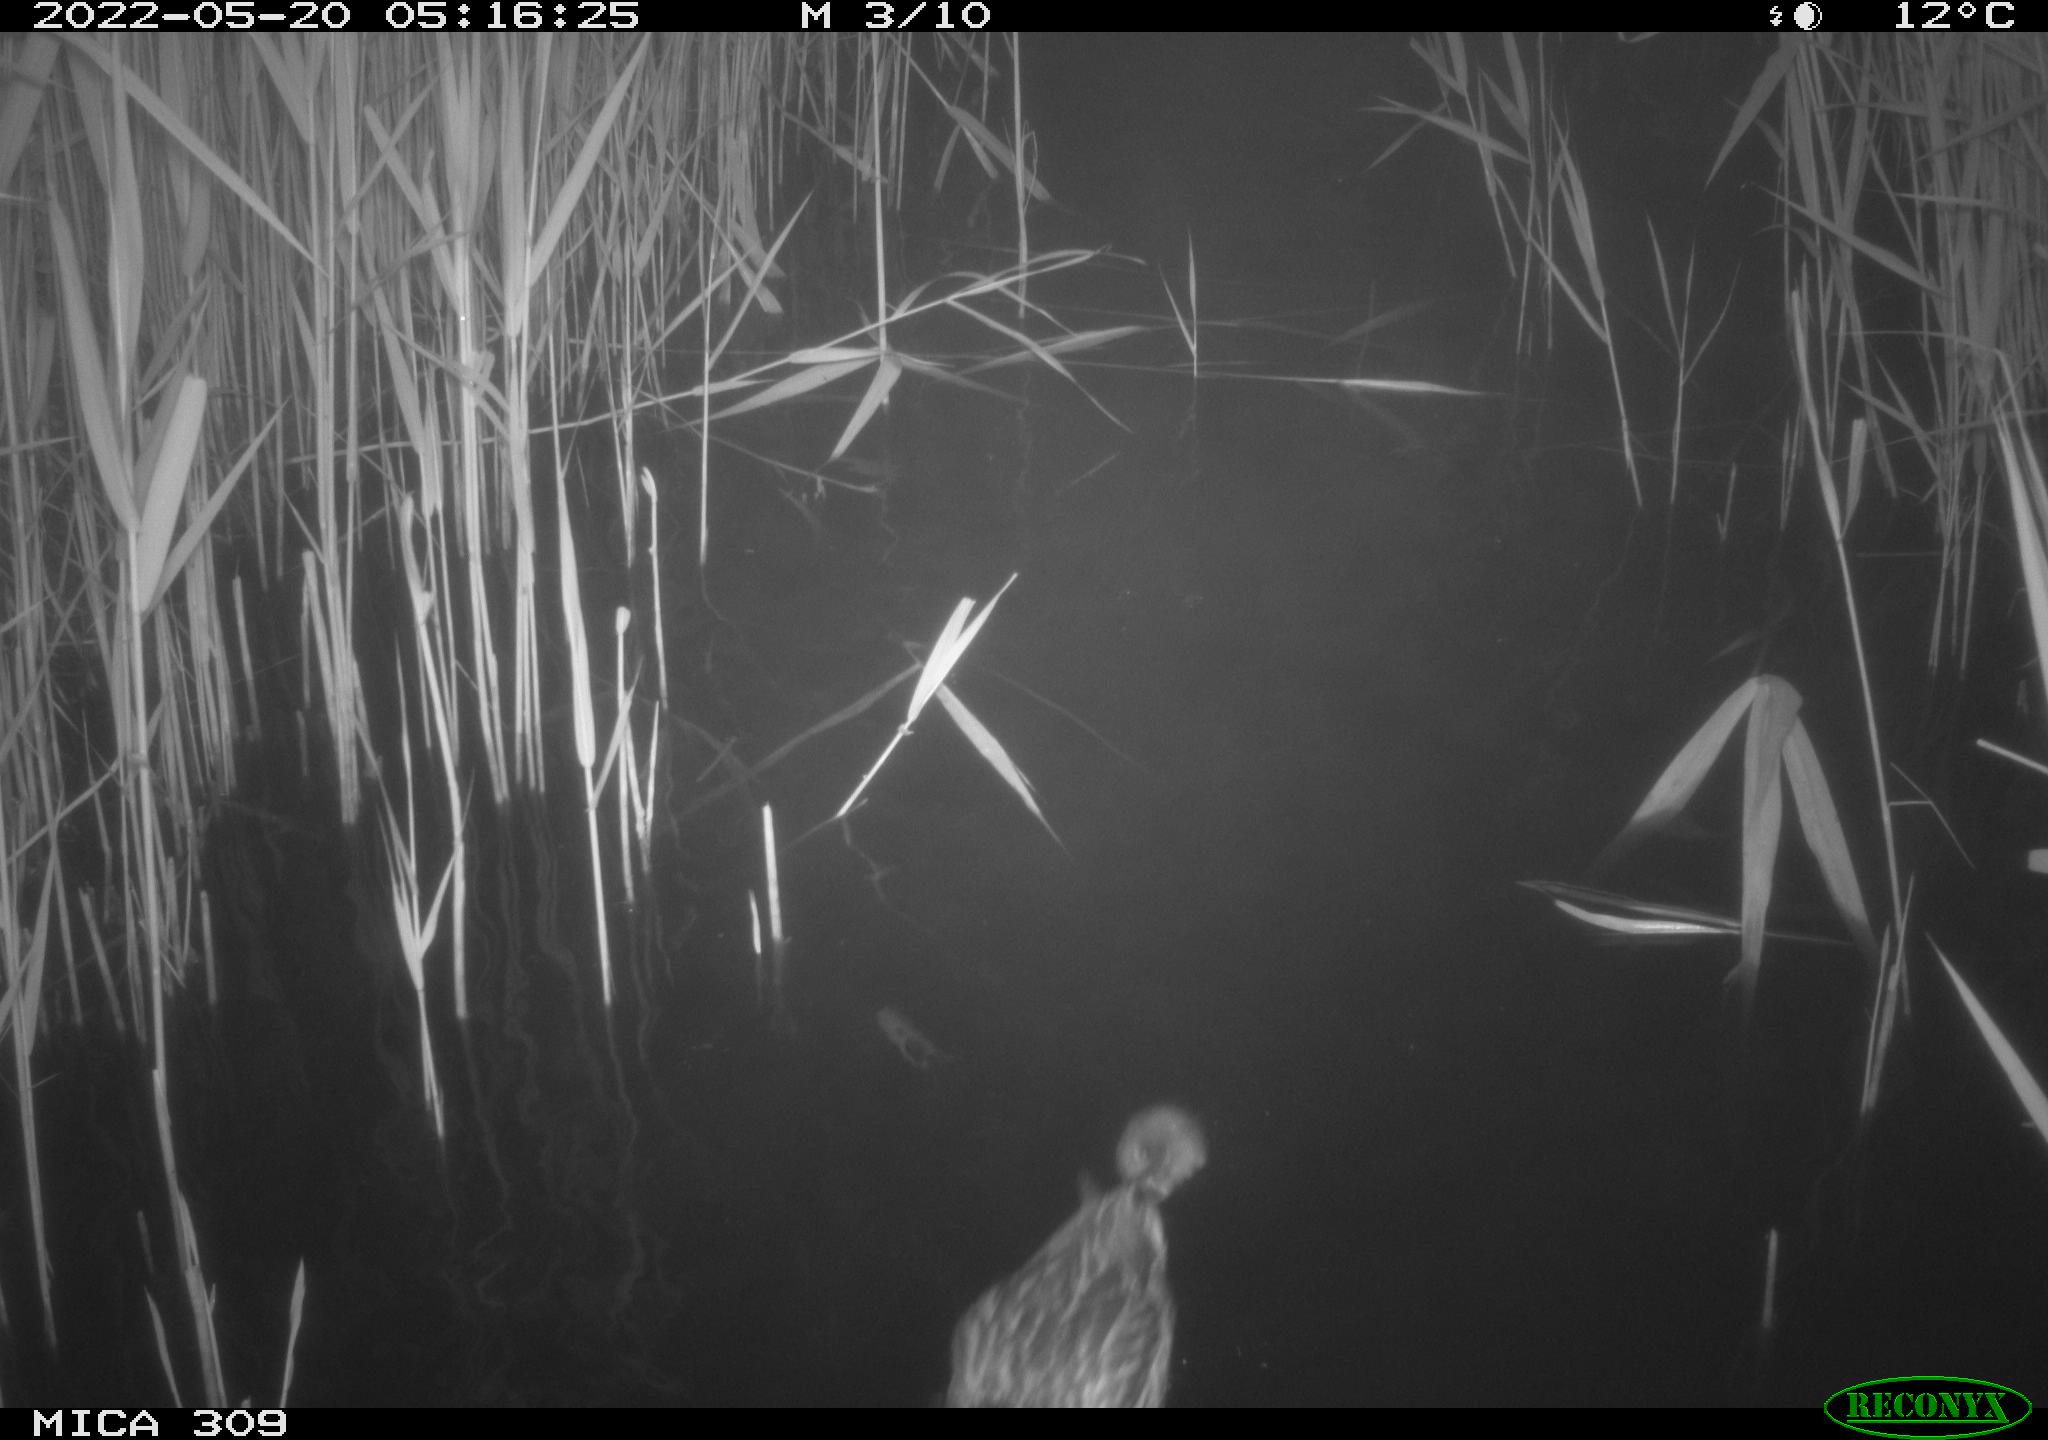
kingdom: Animalia
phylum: Chordata
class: Aves
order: Anseriformes
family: Anatidae
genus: Anas
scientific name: Anas platyrhynchos
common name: Mallard
